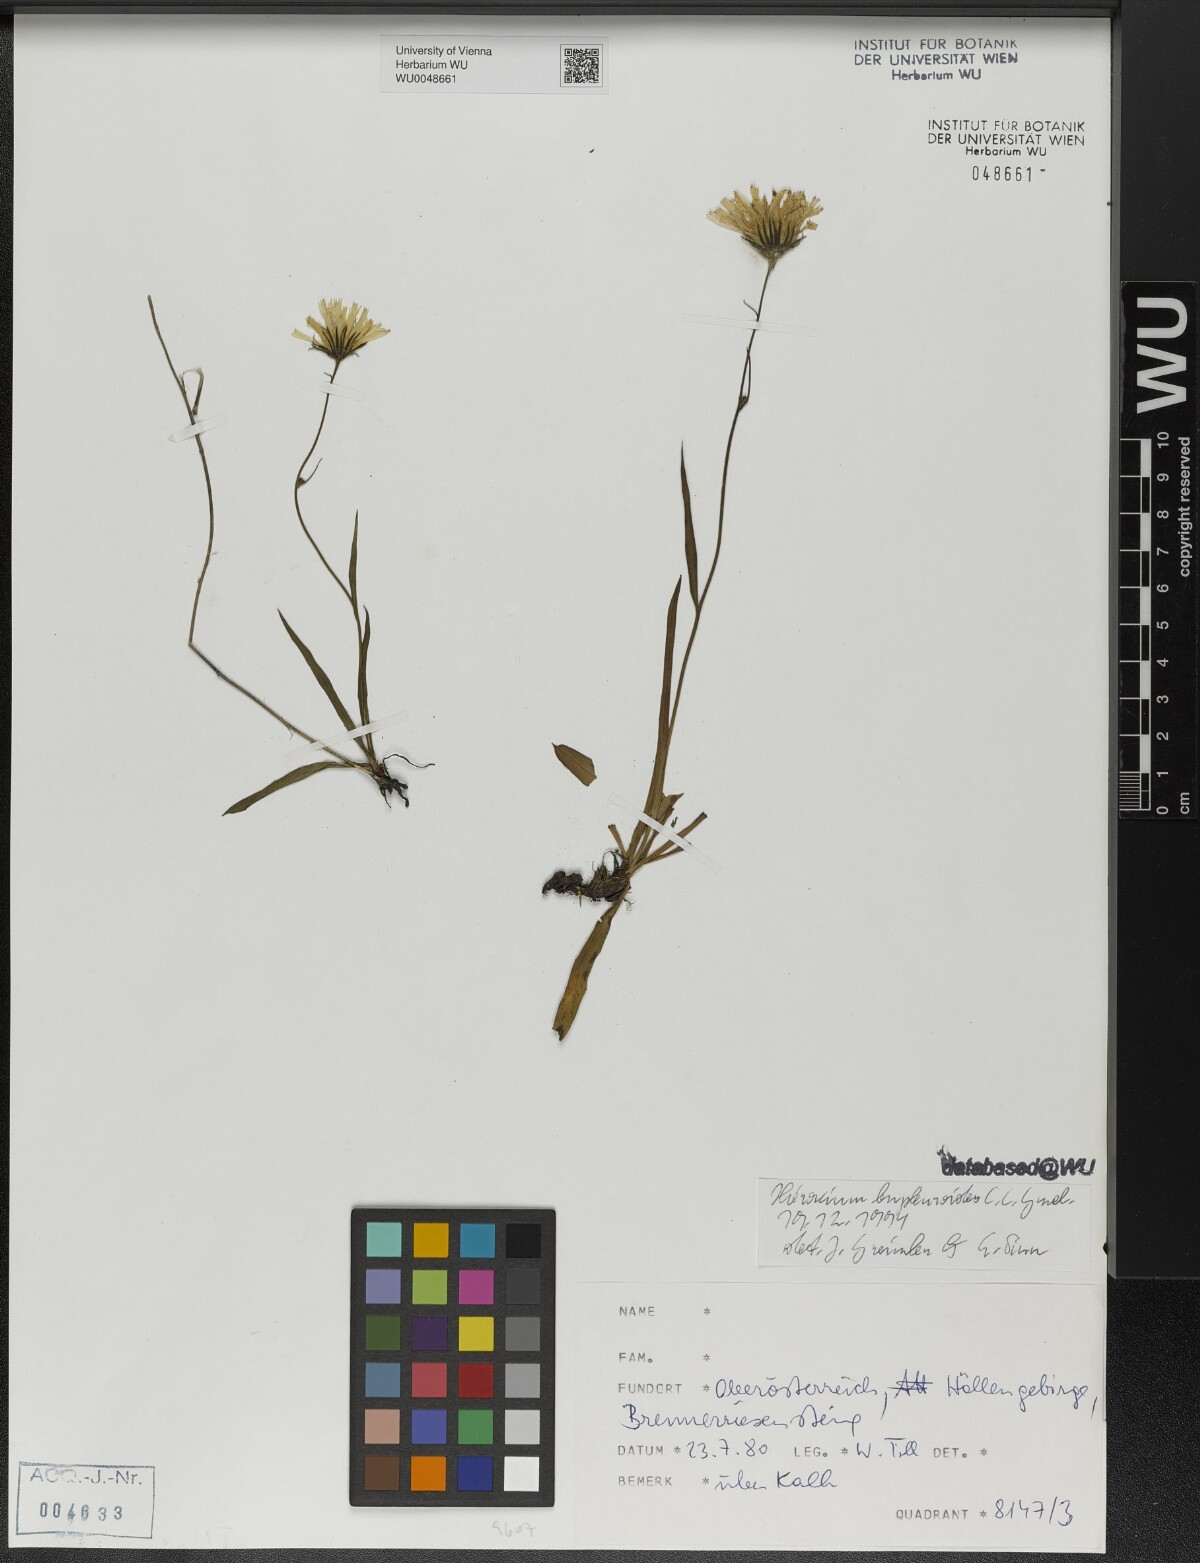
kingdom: Plantae
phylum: Tracheophyta
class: Magnoliopsida
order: Asterales
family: Asteraceae
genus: Hieracium
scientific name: Hieracium bupleuroides
